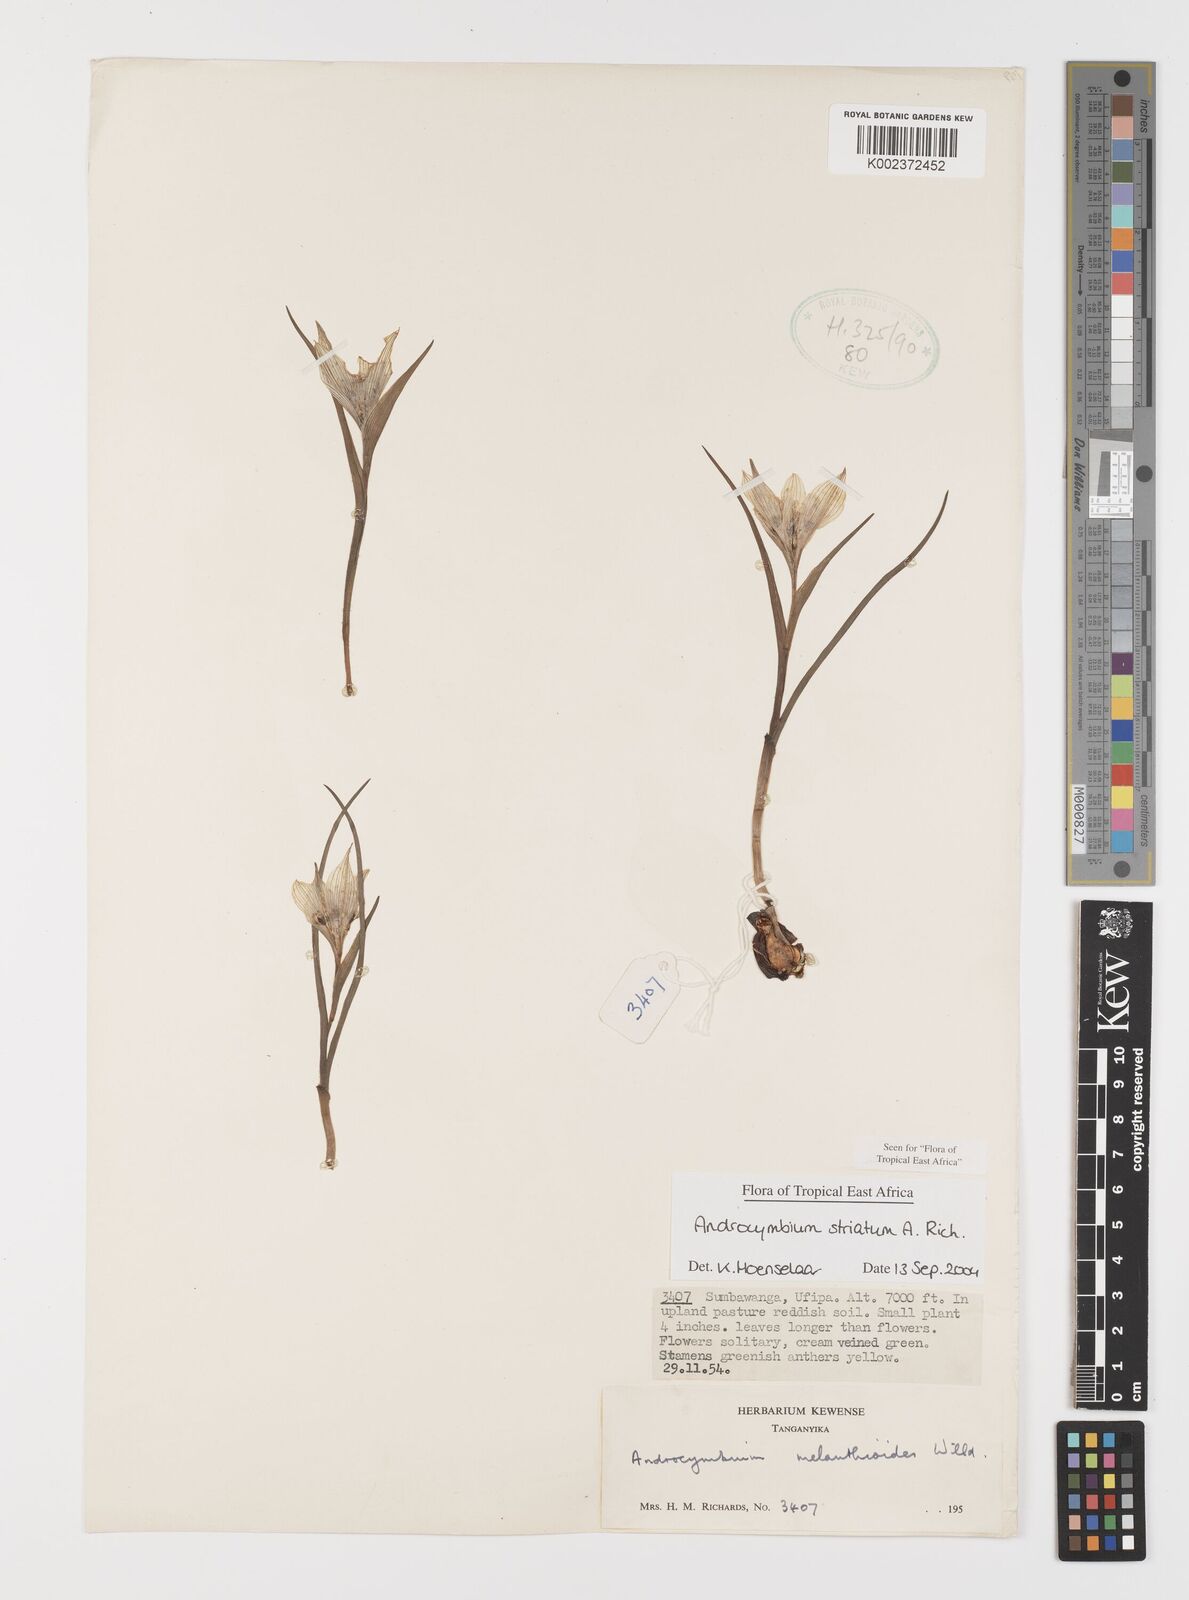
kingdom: Plantae
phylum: Tracheophyta
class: Liliopsida
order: Liliales
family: Colchicaceae
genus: Colchicum
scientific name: Colchicum striatum
